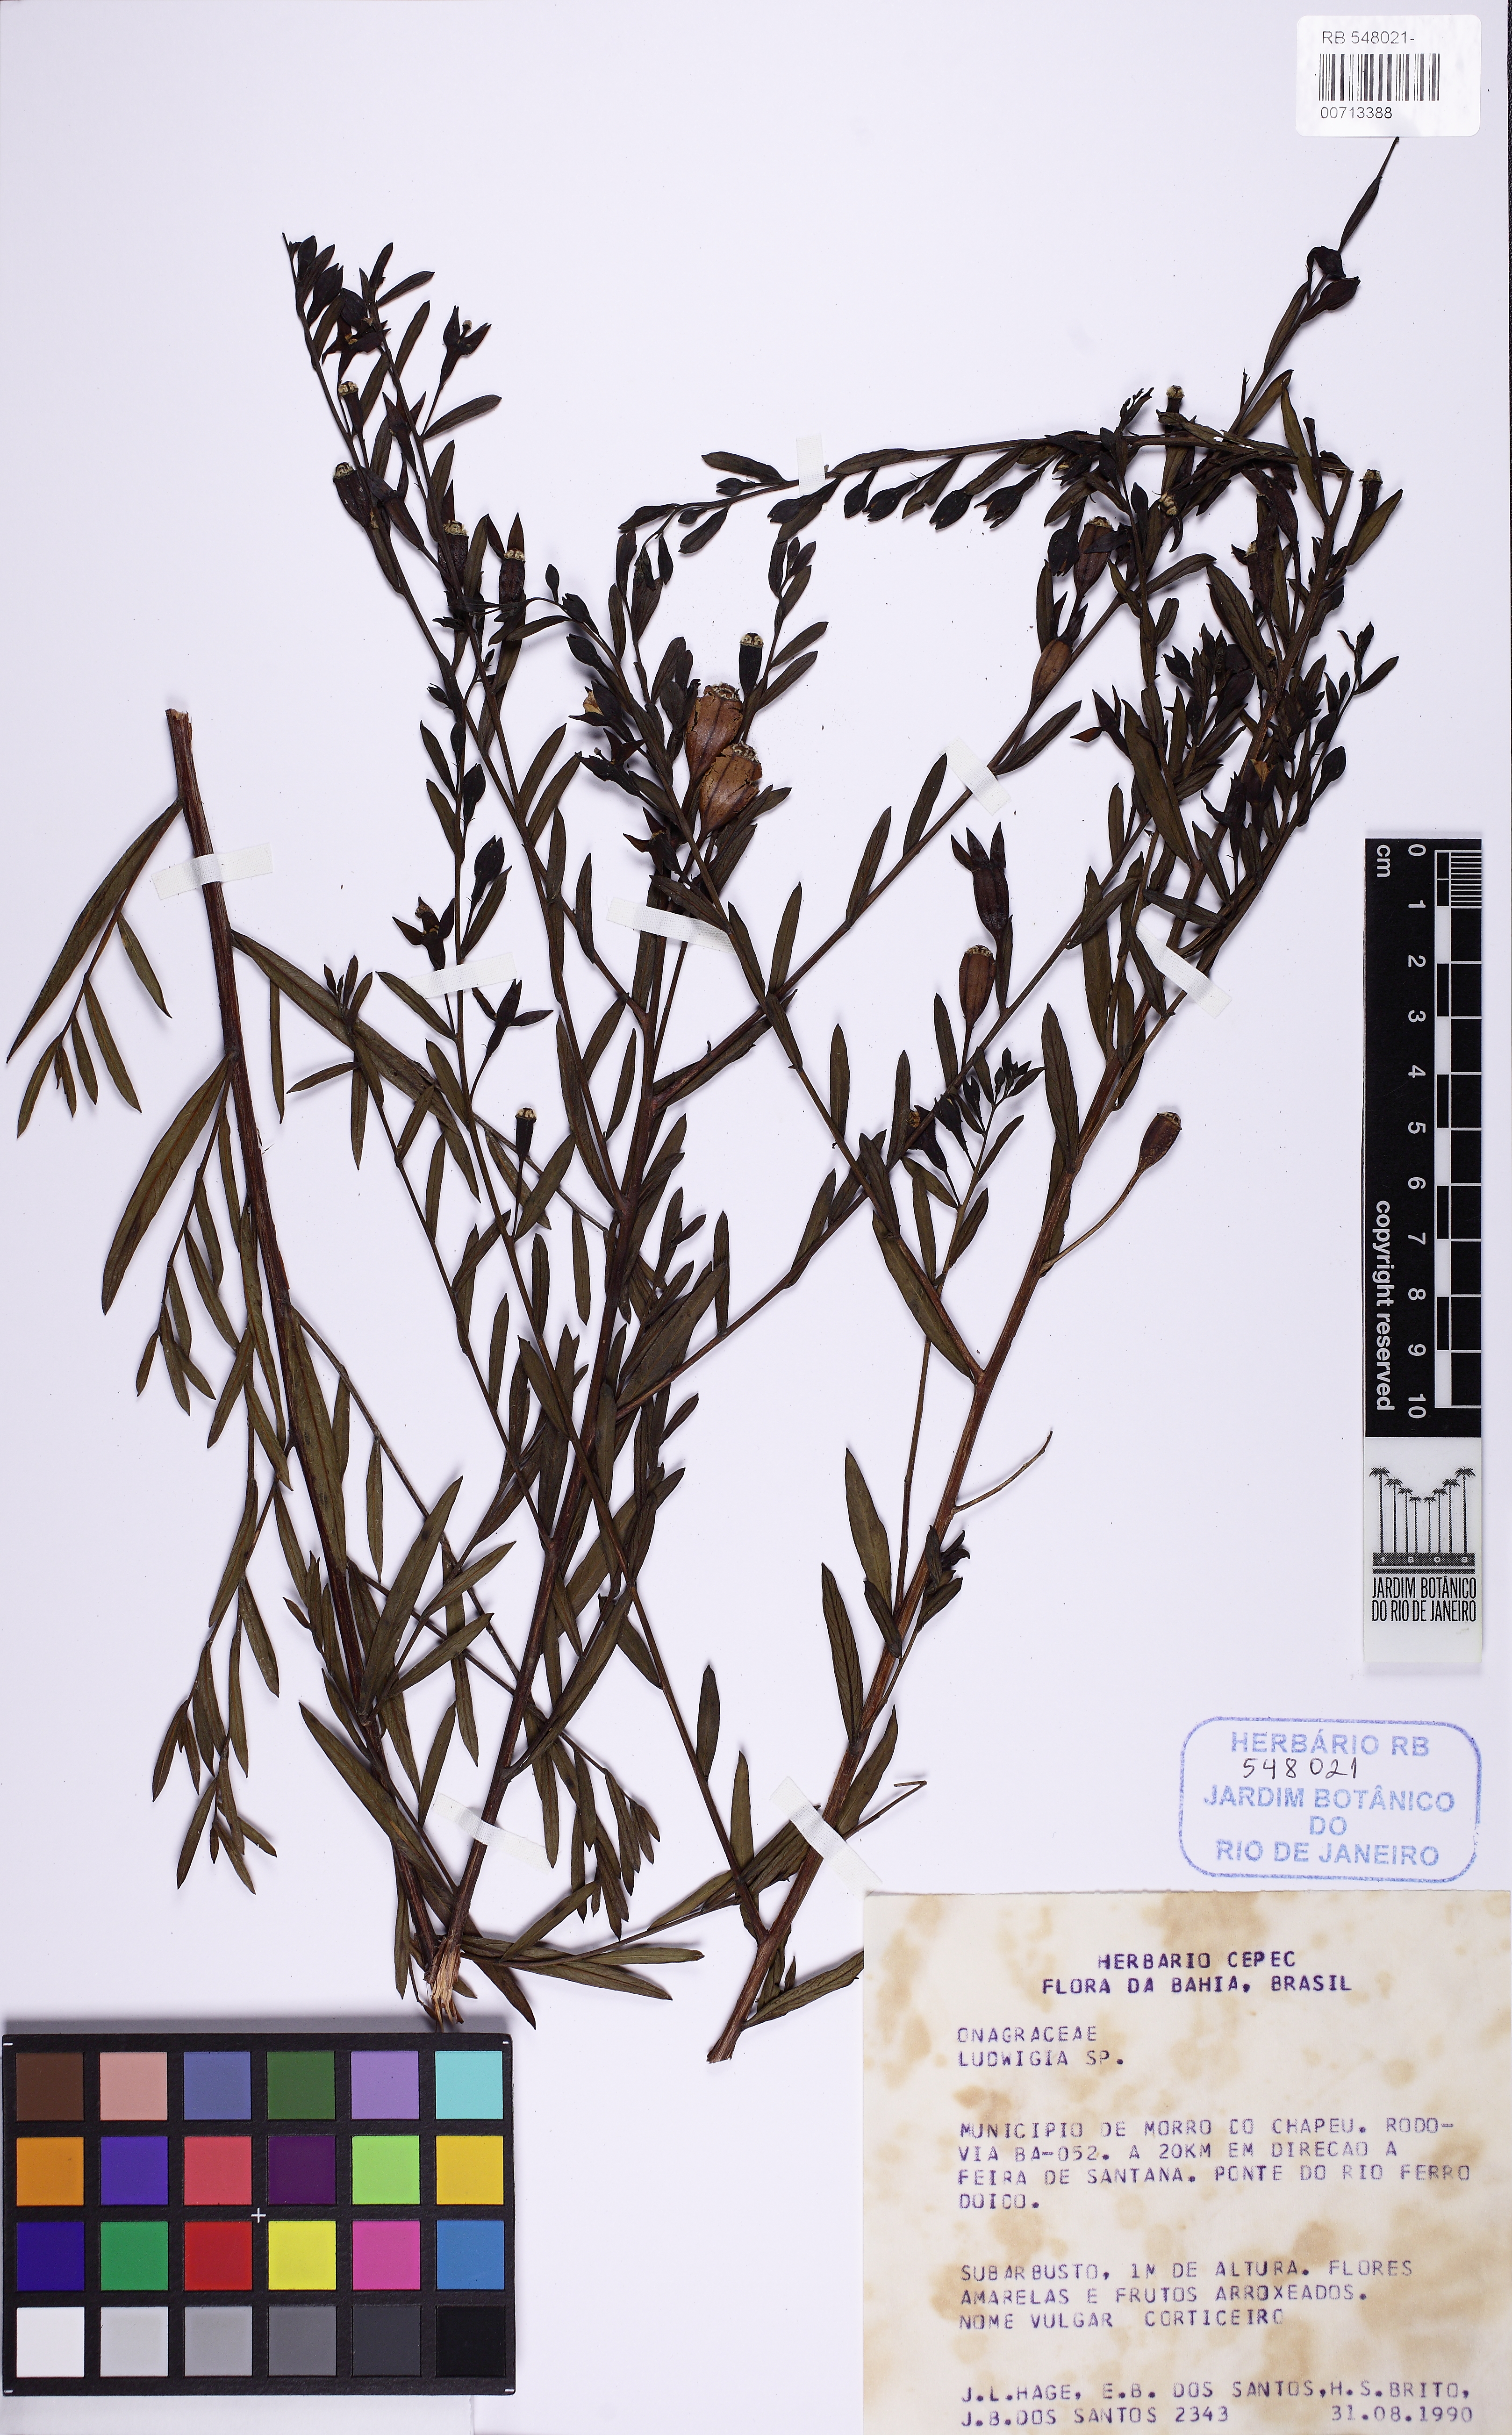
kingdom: Plantae
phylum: Tracheophyta
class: Magnoliopsida
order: Myrtales
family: Onagraceae
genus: Ludwigia
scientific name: Ludwigia
